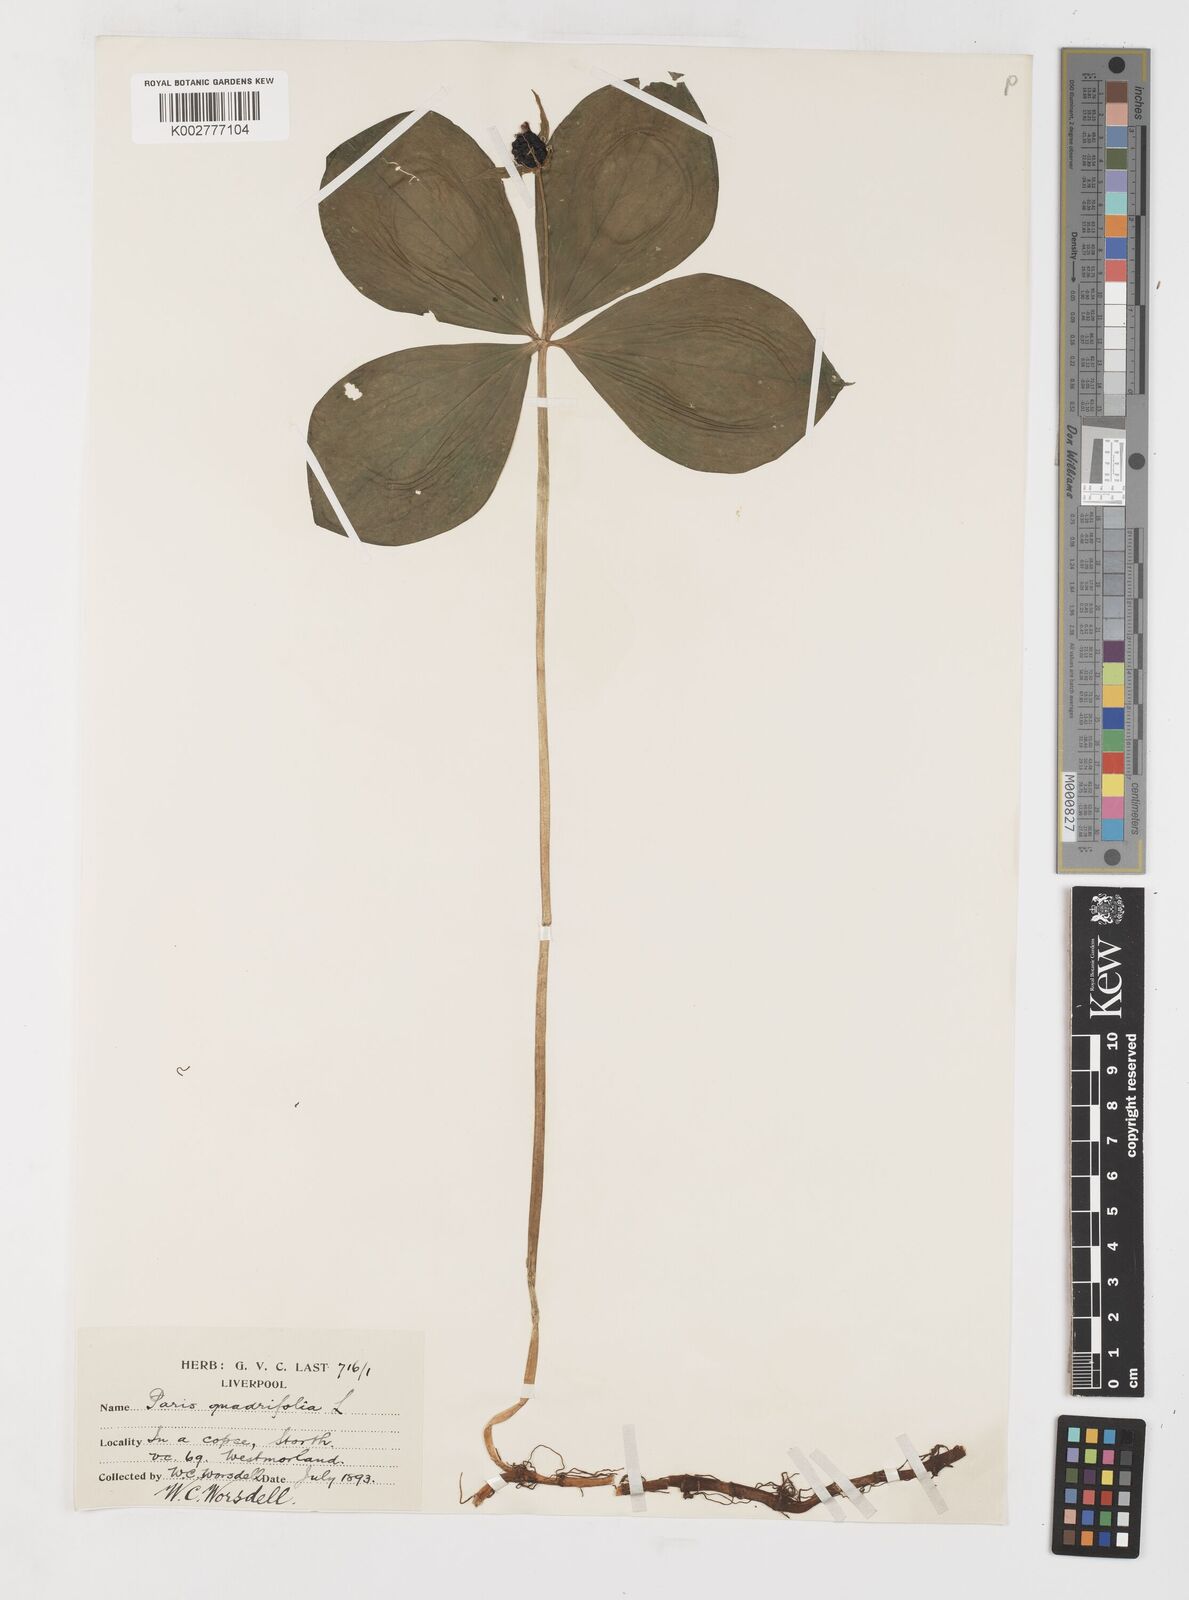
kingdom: Plantae
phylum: Tracheophyta
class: Liliopsida
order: Liliales
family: Melanthiaceae
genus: Paris
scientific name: Paris quadrifolia
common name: Herb-paris
